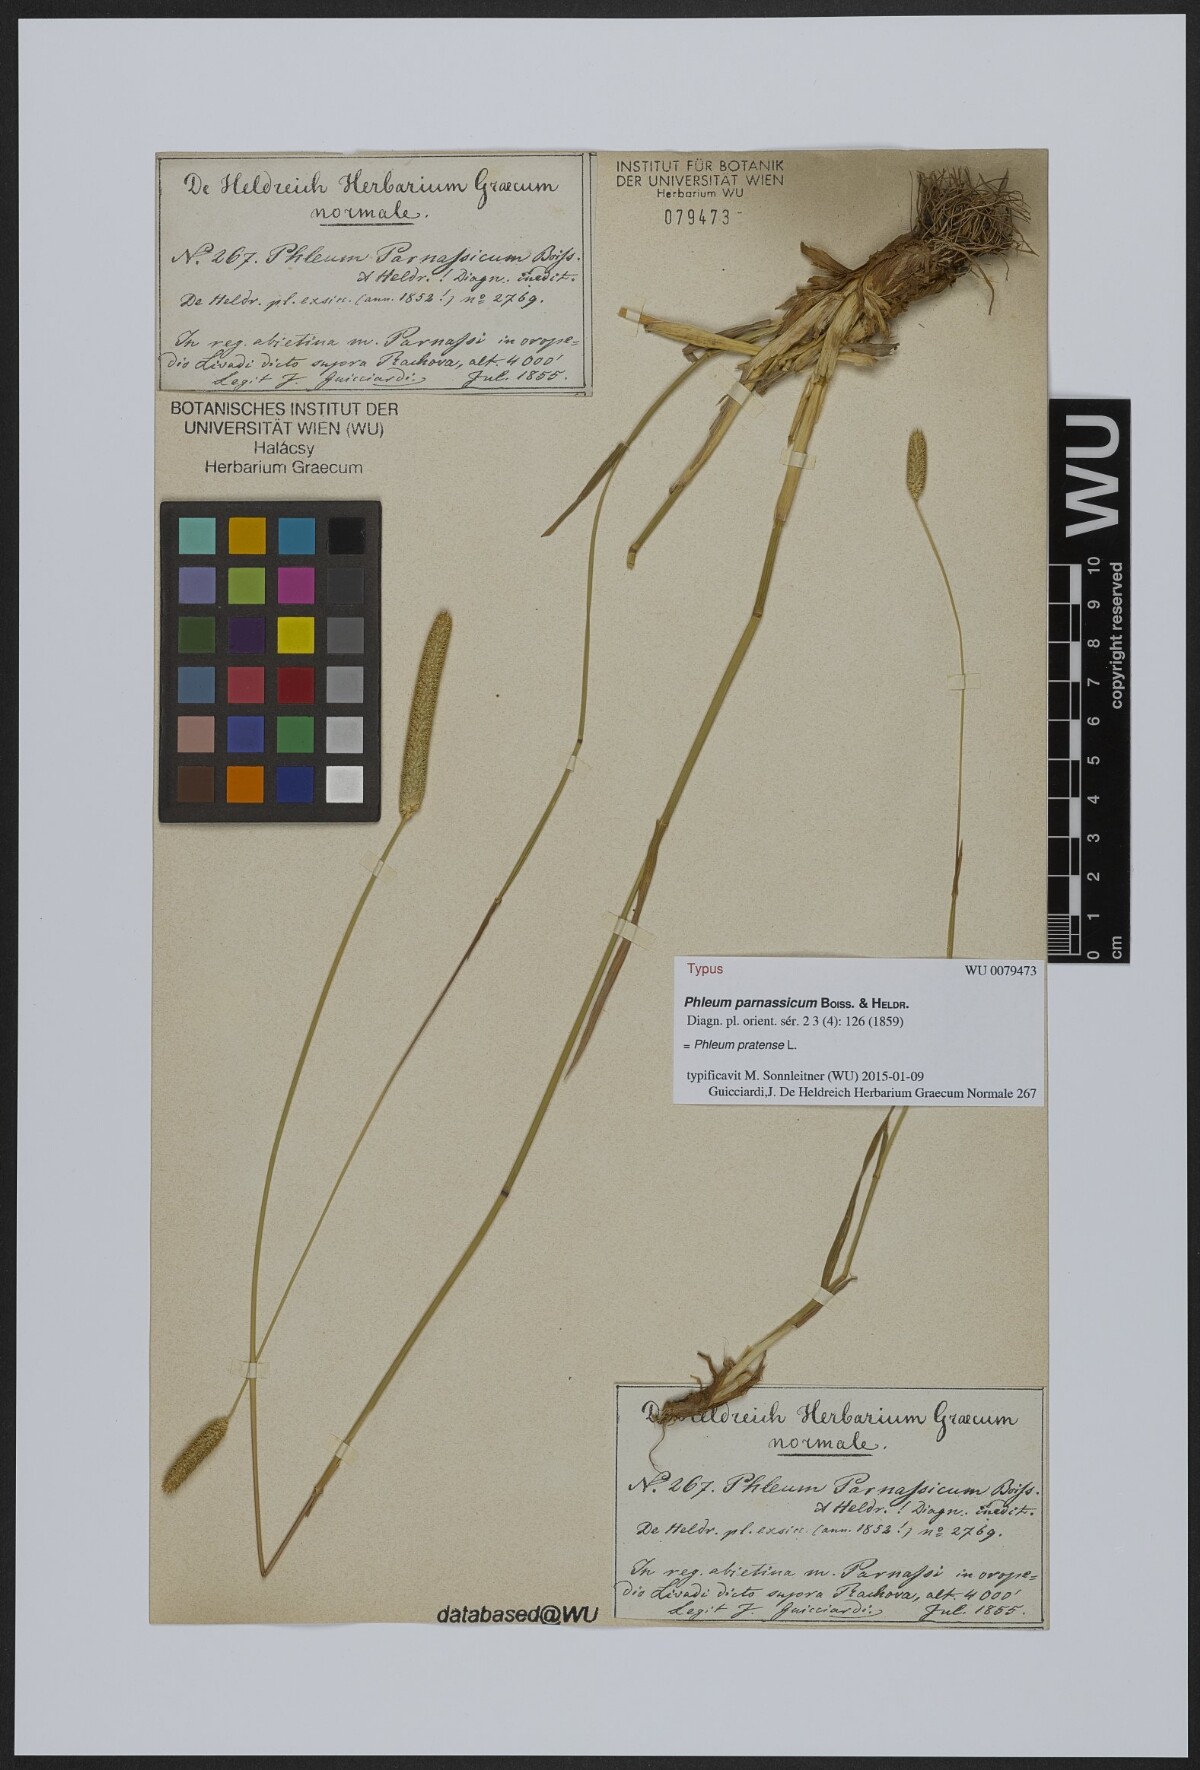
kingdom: Plantae
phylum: Tracheophyta
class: Liliopsida
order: Poales
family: Poaceae
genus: Phleum
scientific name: Phleum pratense
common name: Timothy grass
